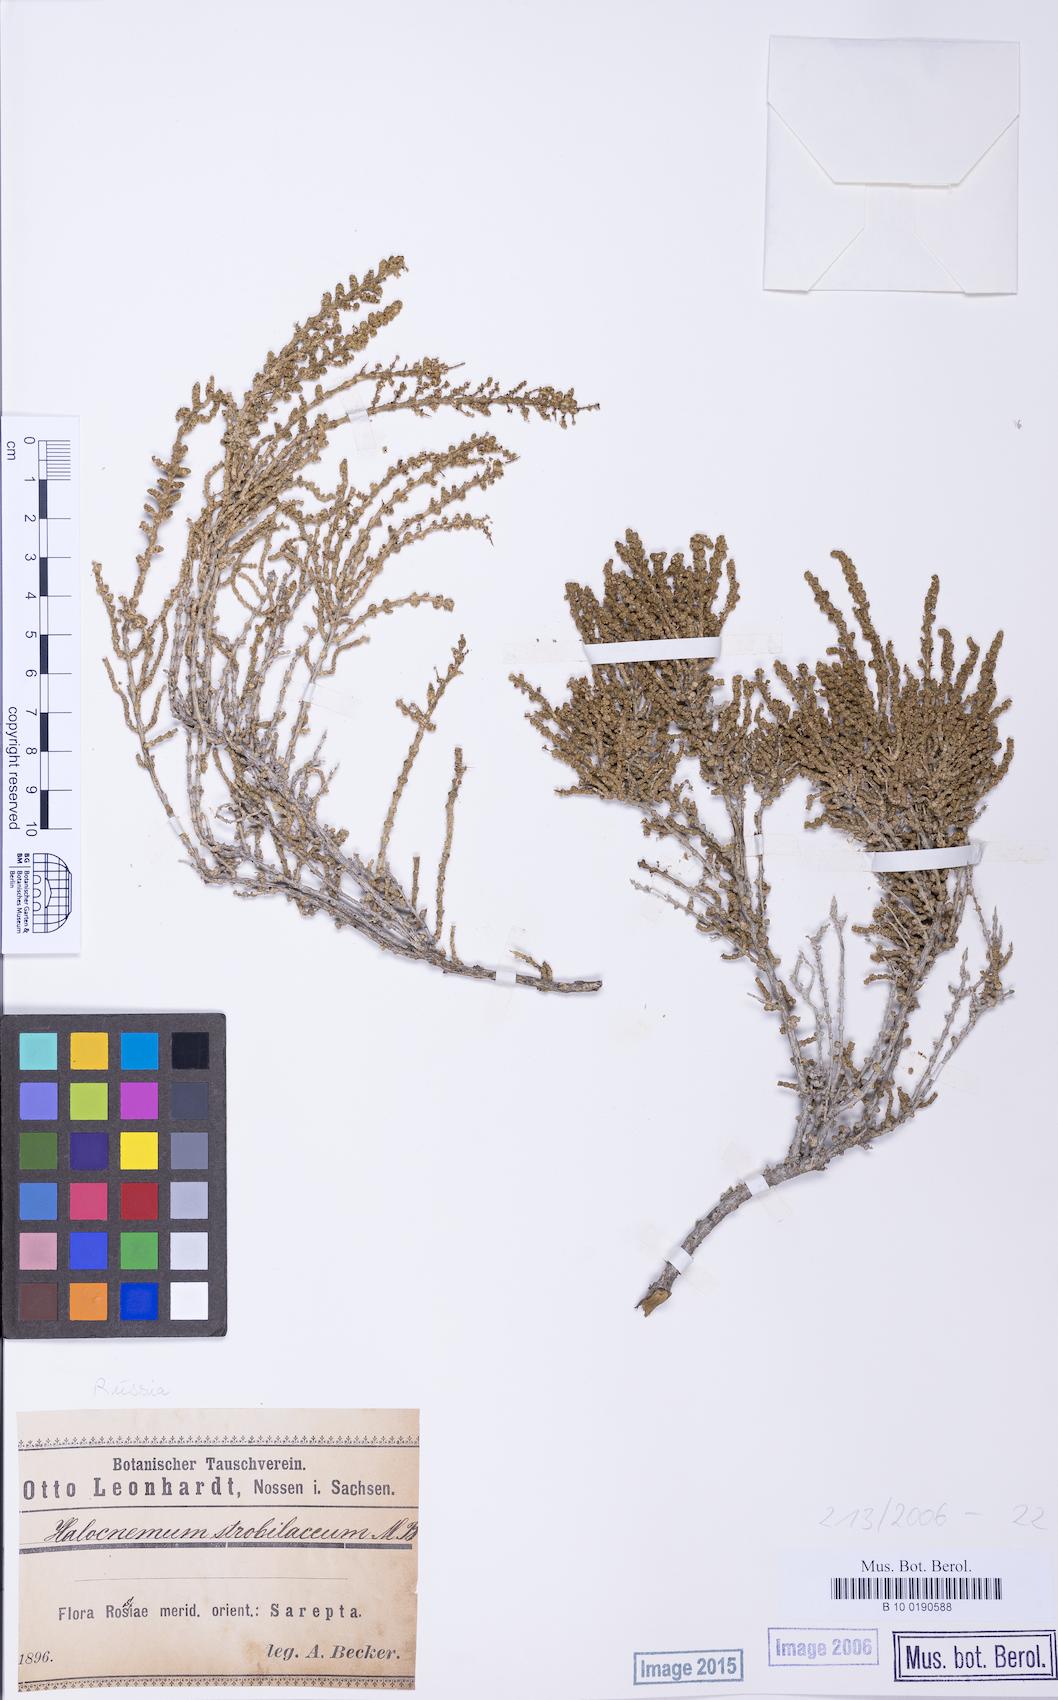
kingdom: Plantae
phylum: Tracheophyta
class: Magnoliopsida
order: Caryophyllales
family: Amaranthaceae
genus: Halocnemum
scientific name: Halocnemum strobilaceum
